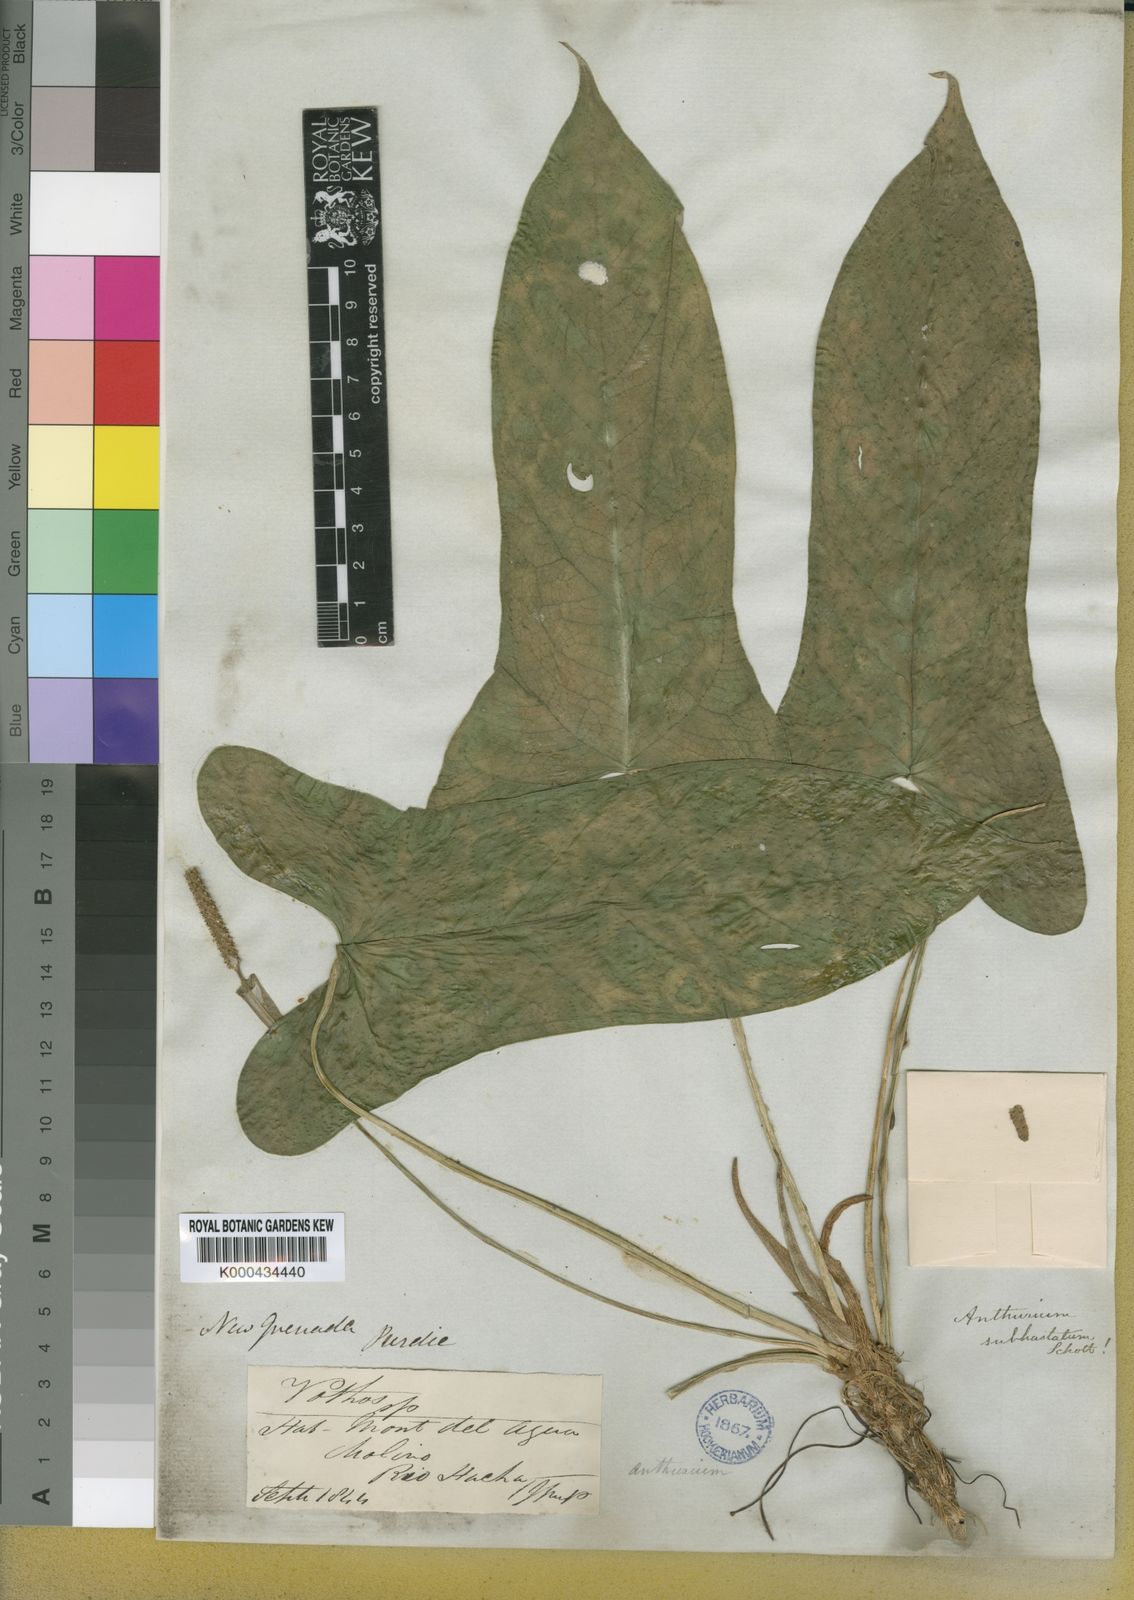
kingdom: Plantae
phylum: Tracheophyta
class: Liliopsida
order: Alismatales
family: Araceae
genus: Anthurium
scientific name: Anthurium subhastatum
